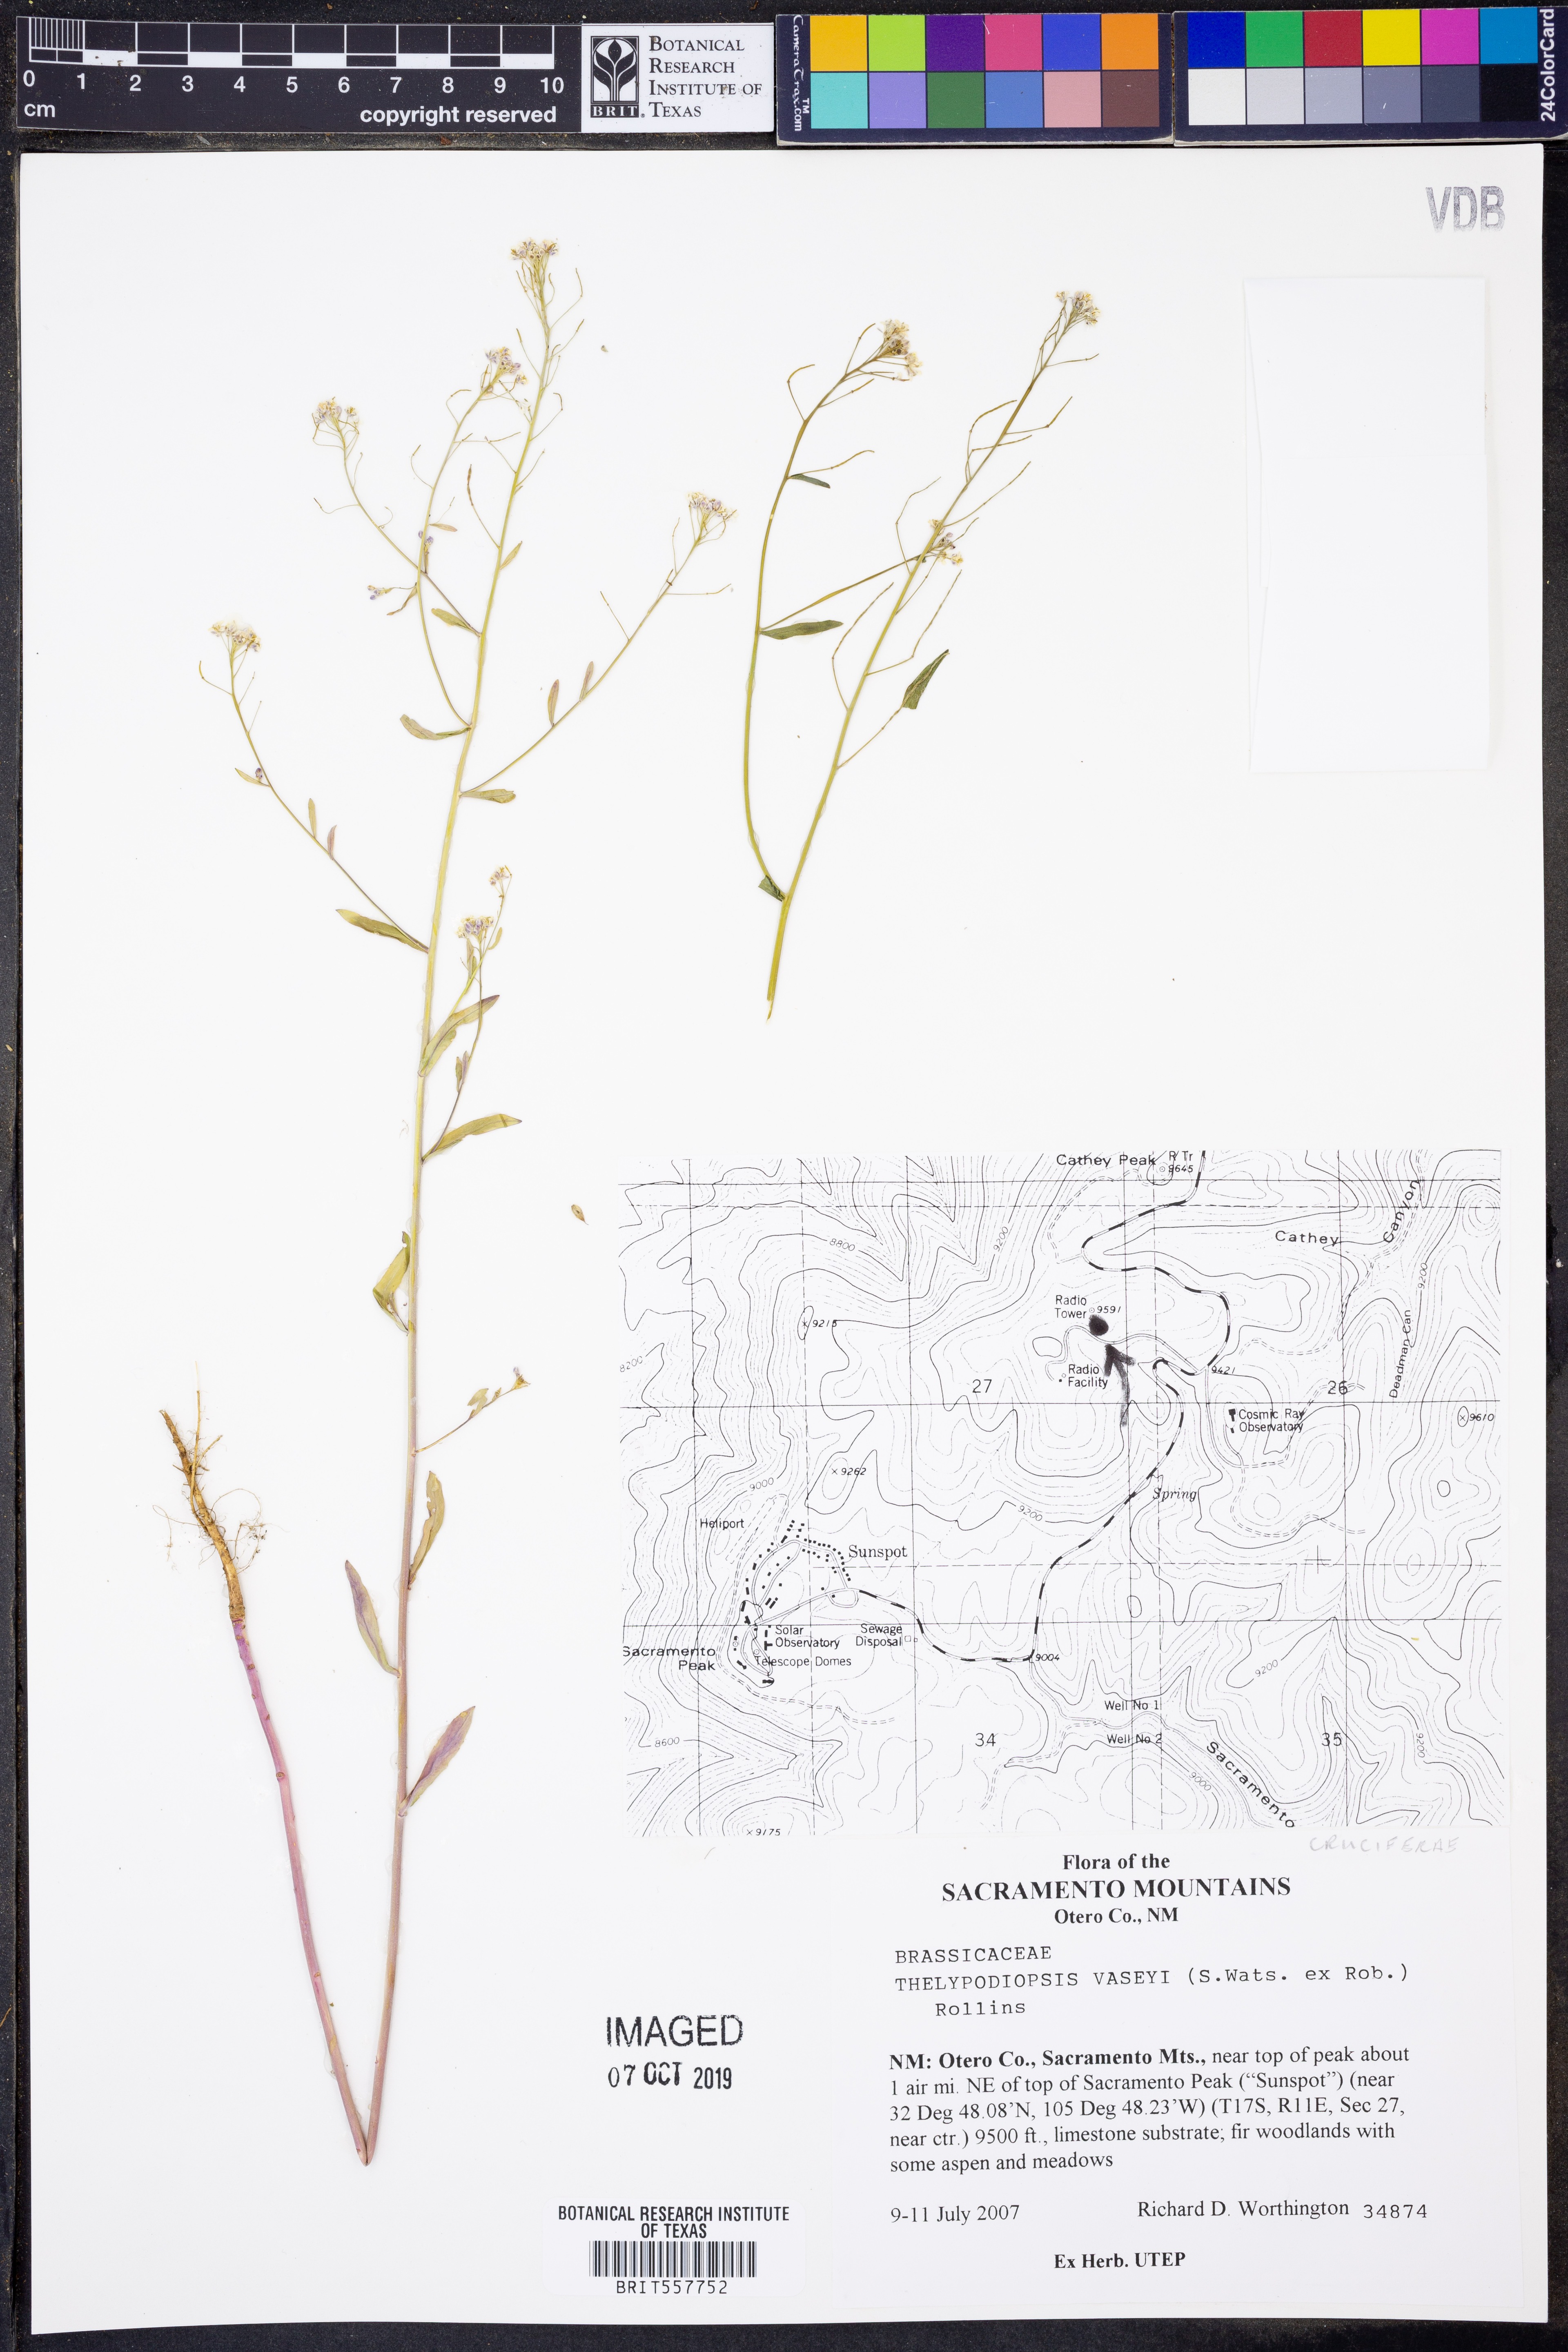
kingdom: Plantae
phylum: Tracheophyta
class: Magnoliopsida
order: Brassicales
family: Brassicaceae
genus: Mostacillastrum
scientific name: Mostacillastrum subauriculatum
